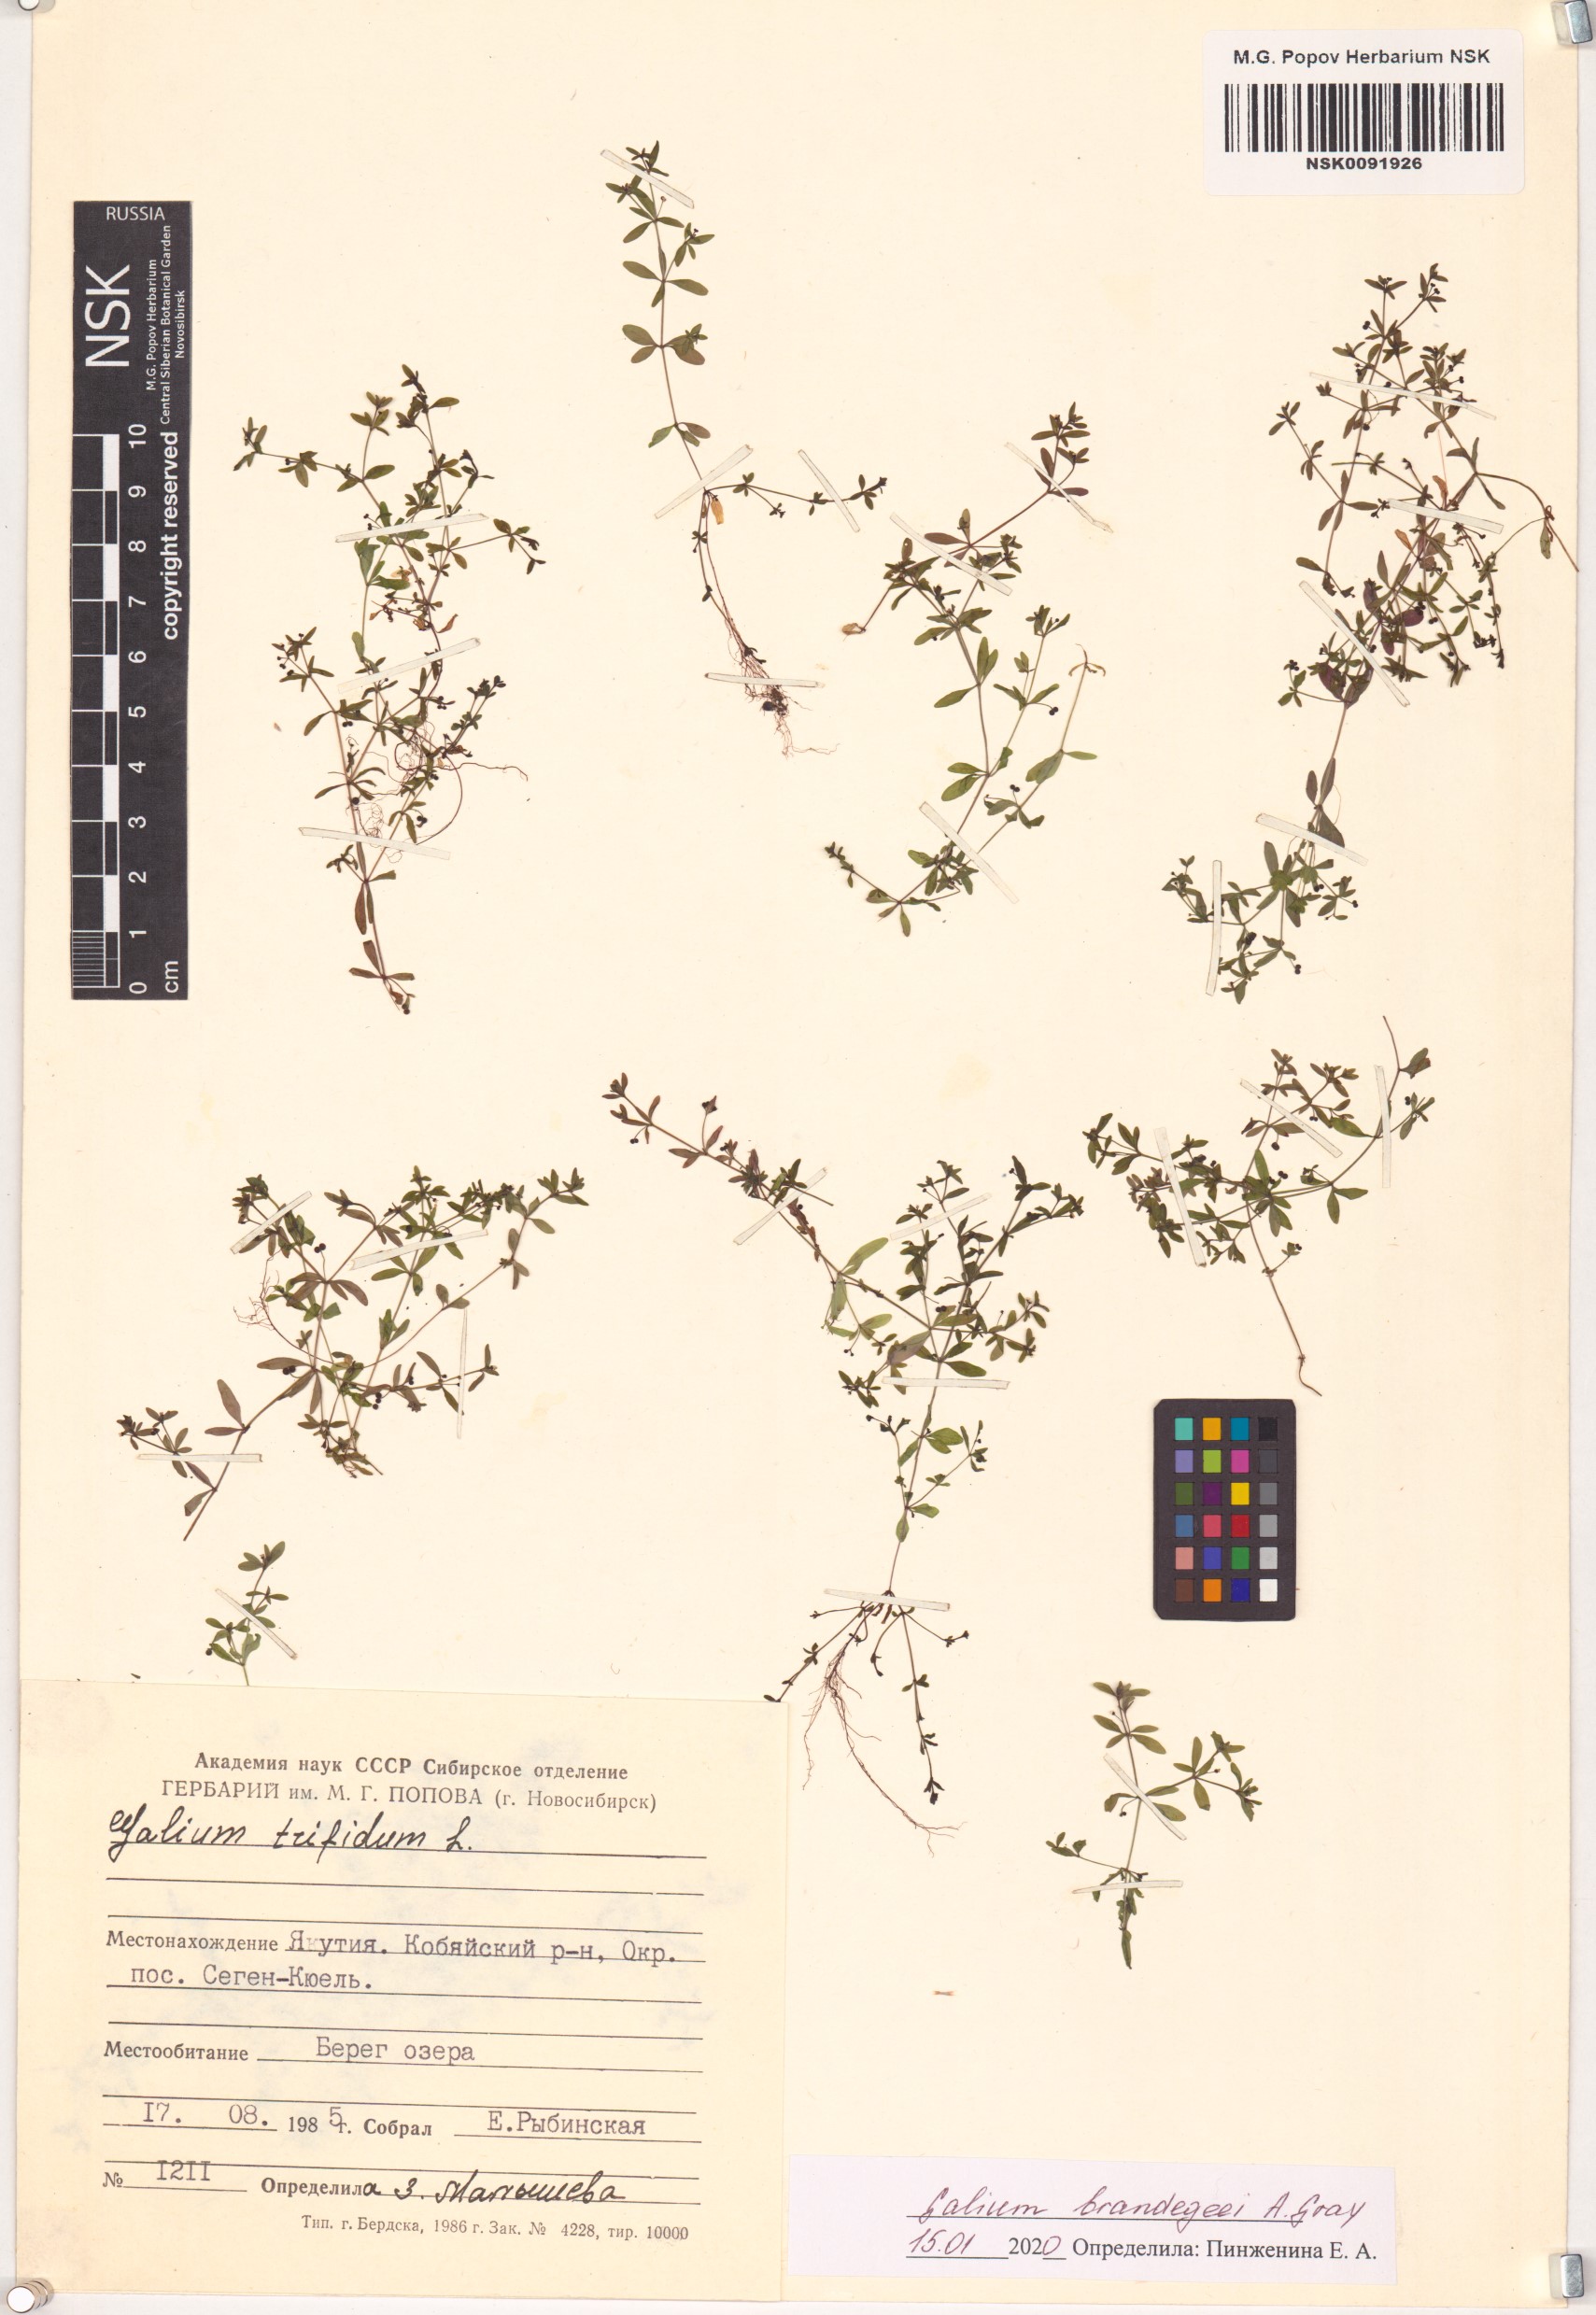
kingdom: Plantae
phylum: Tracheophyta
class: Magnoliopsida
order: Gentianales
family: Rubiaceae
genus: Galium
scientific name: Galium trifidum
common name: Small bedstraw
